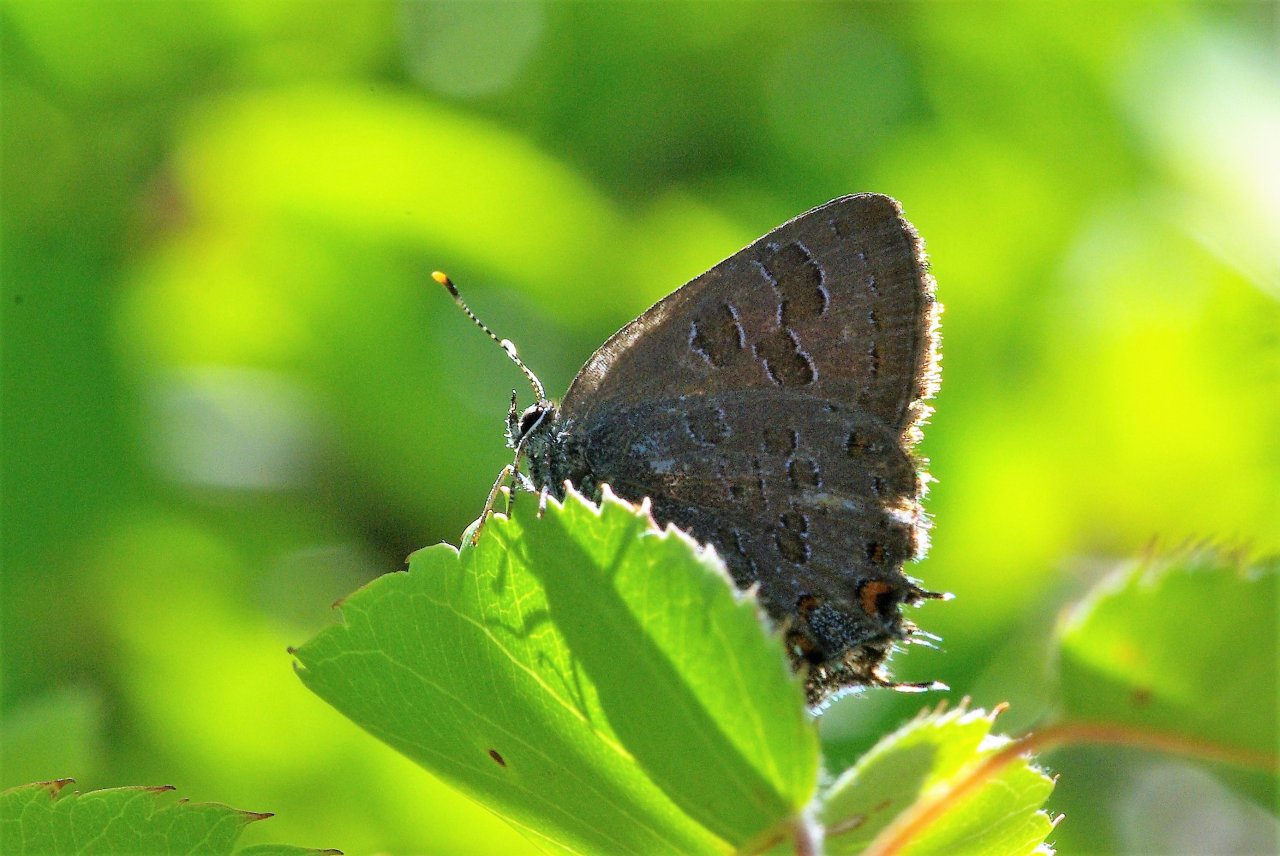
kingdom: Animalia
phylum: Arthropoda
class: Insecta
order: Lepidoptera
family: Lycaenidae
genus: Satyrium
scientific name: Satyrium liparops
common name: Striped Hairstreak
